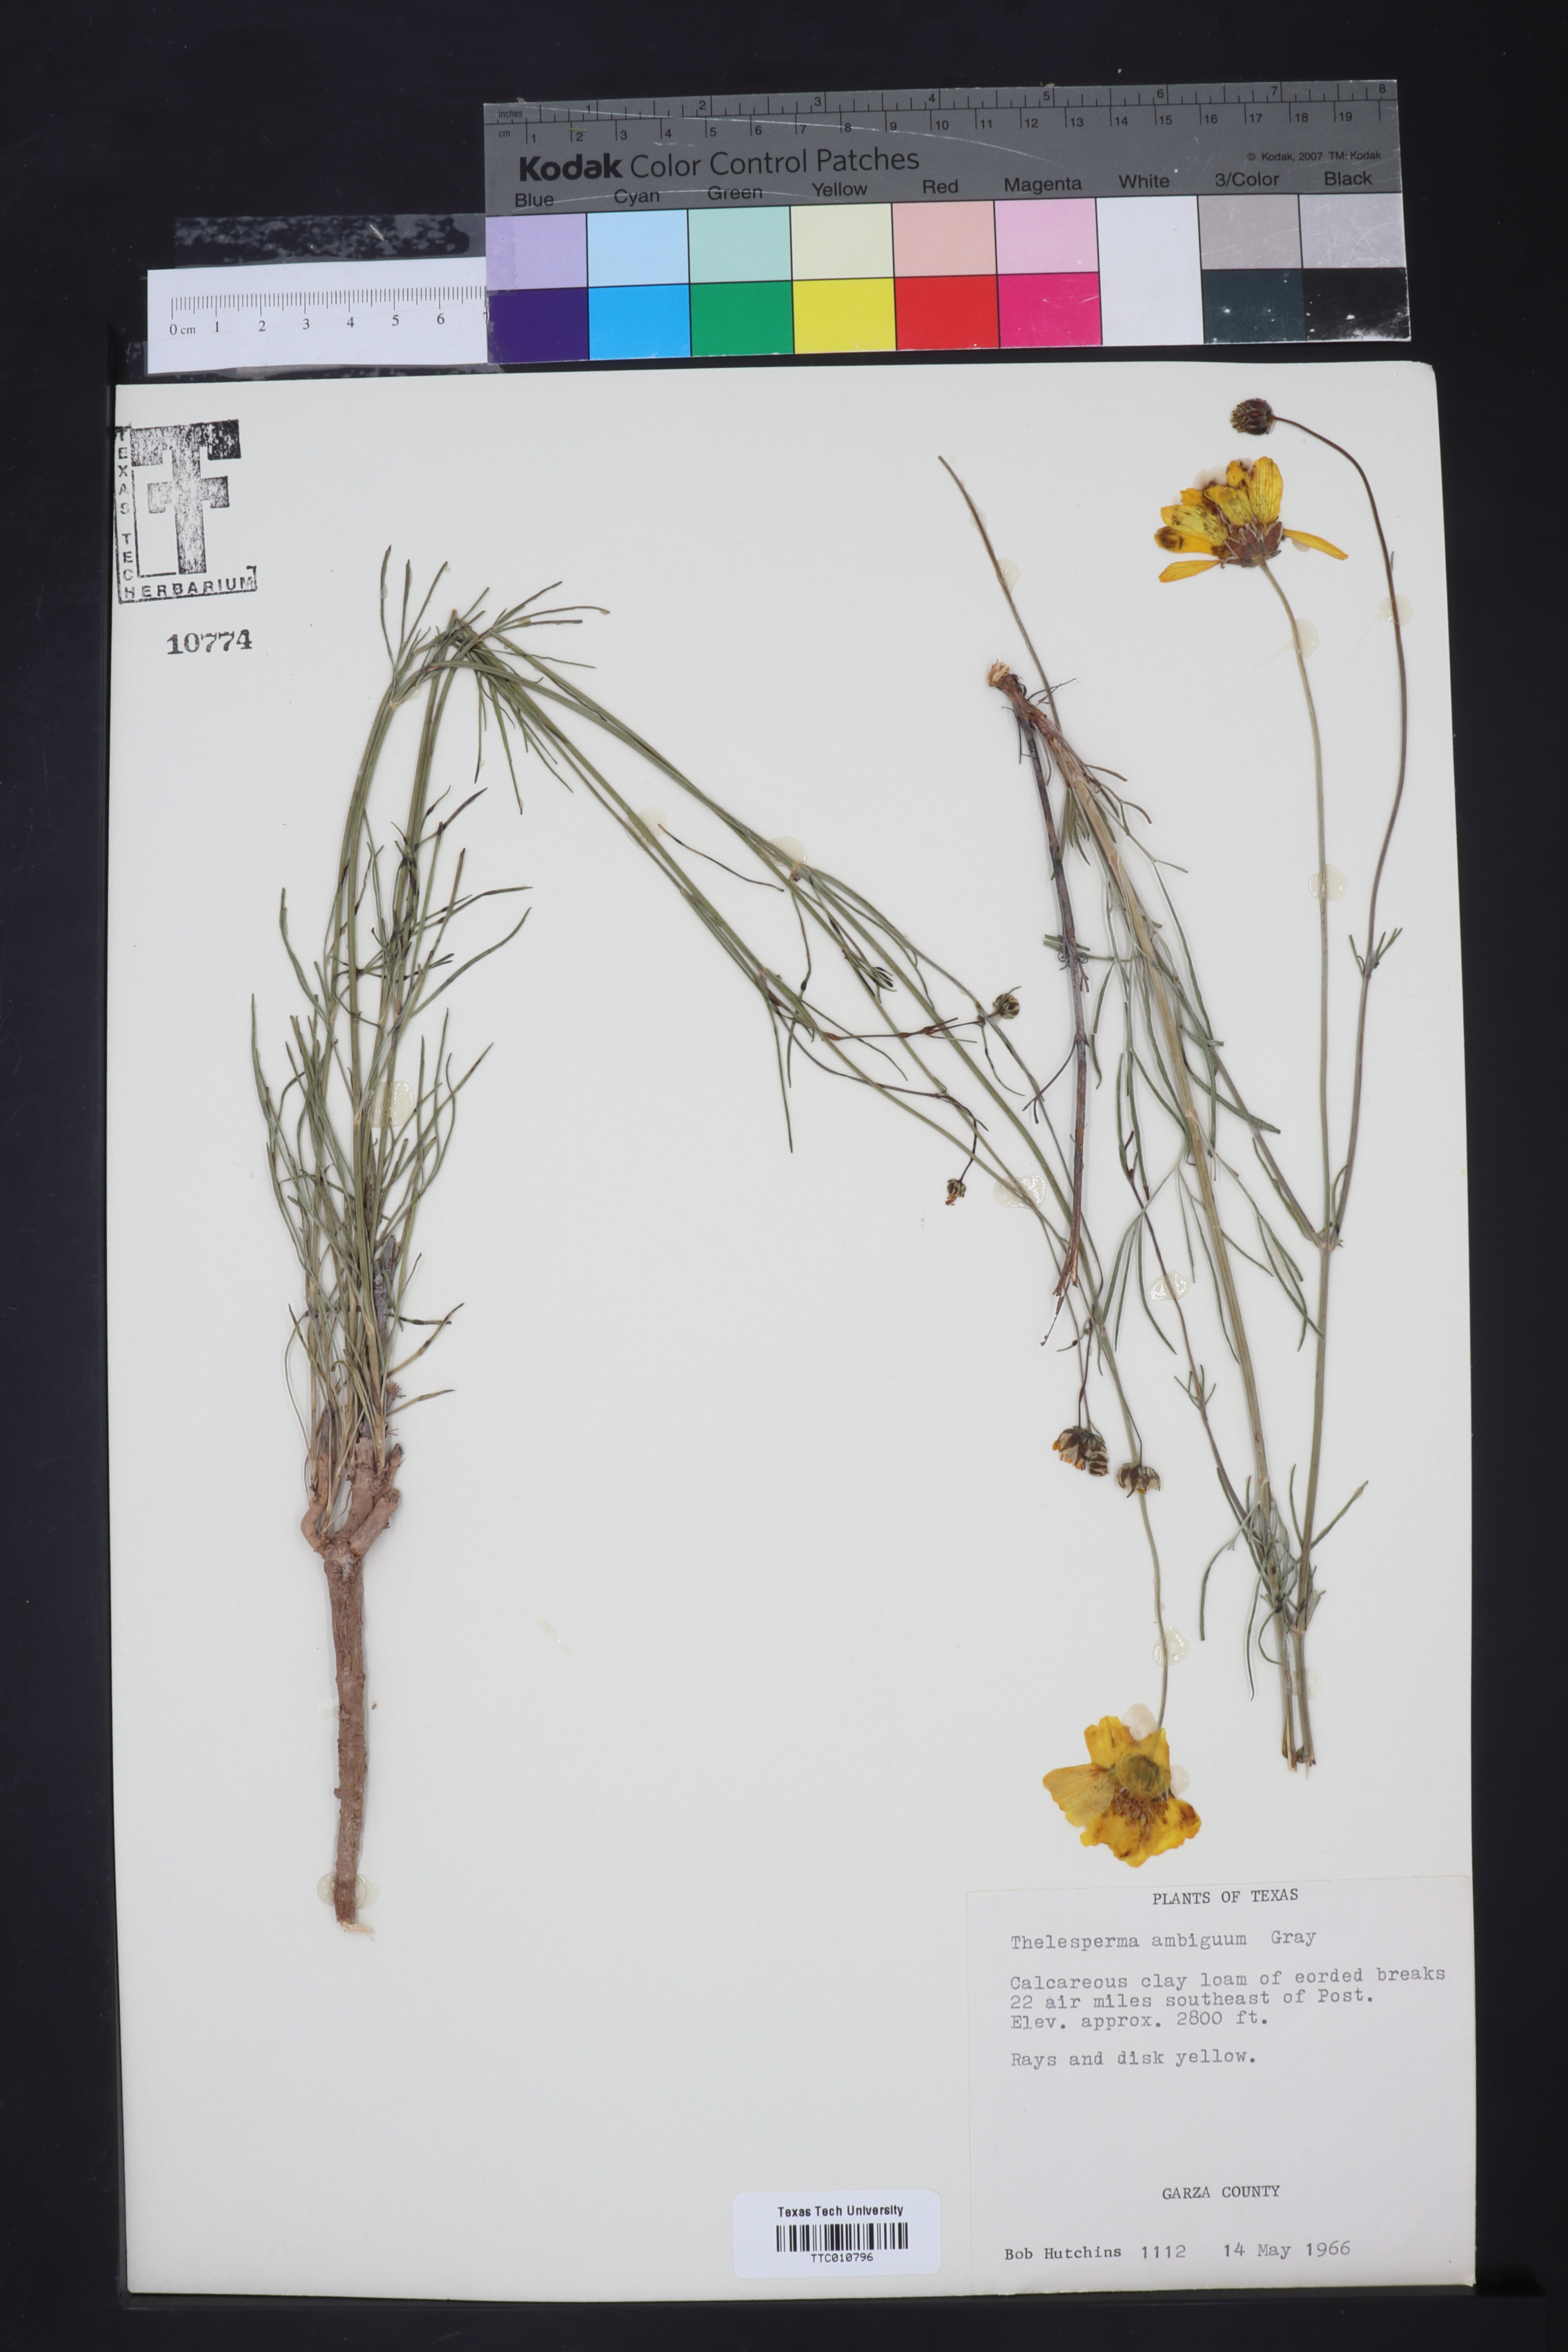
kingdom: Plantae
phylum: Tracheophyta
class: Magnoliopsida
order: Asterales
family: Asteraceae
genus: Thelesperma
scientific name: Thelesperma ambiguum
